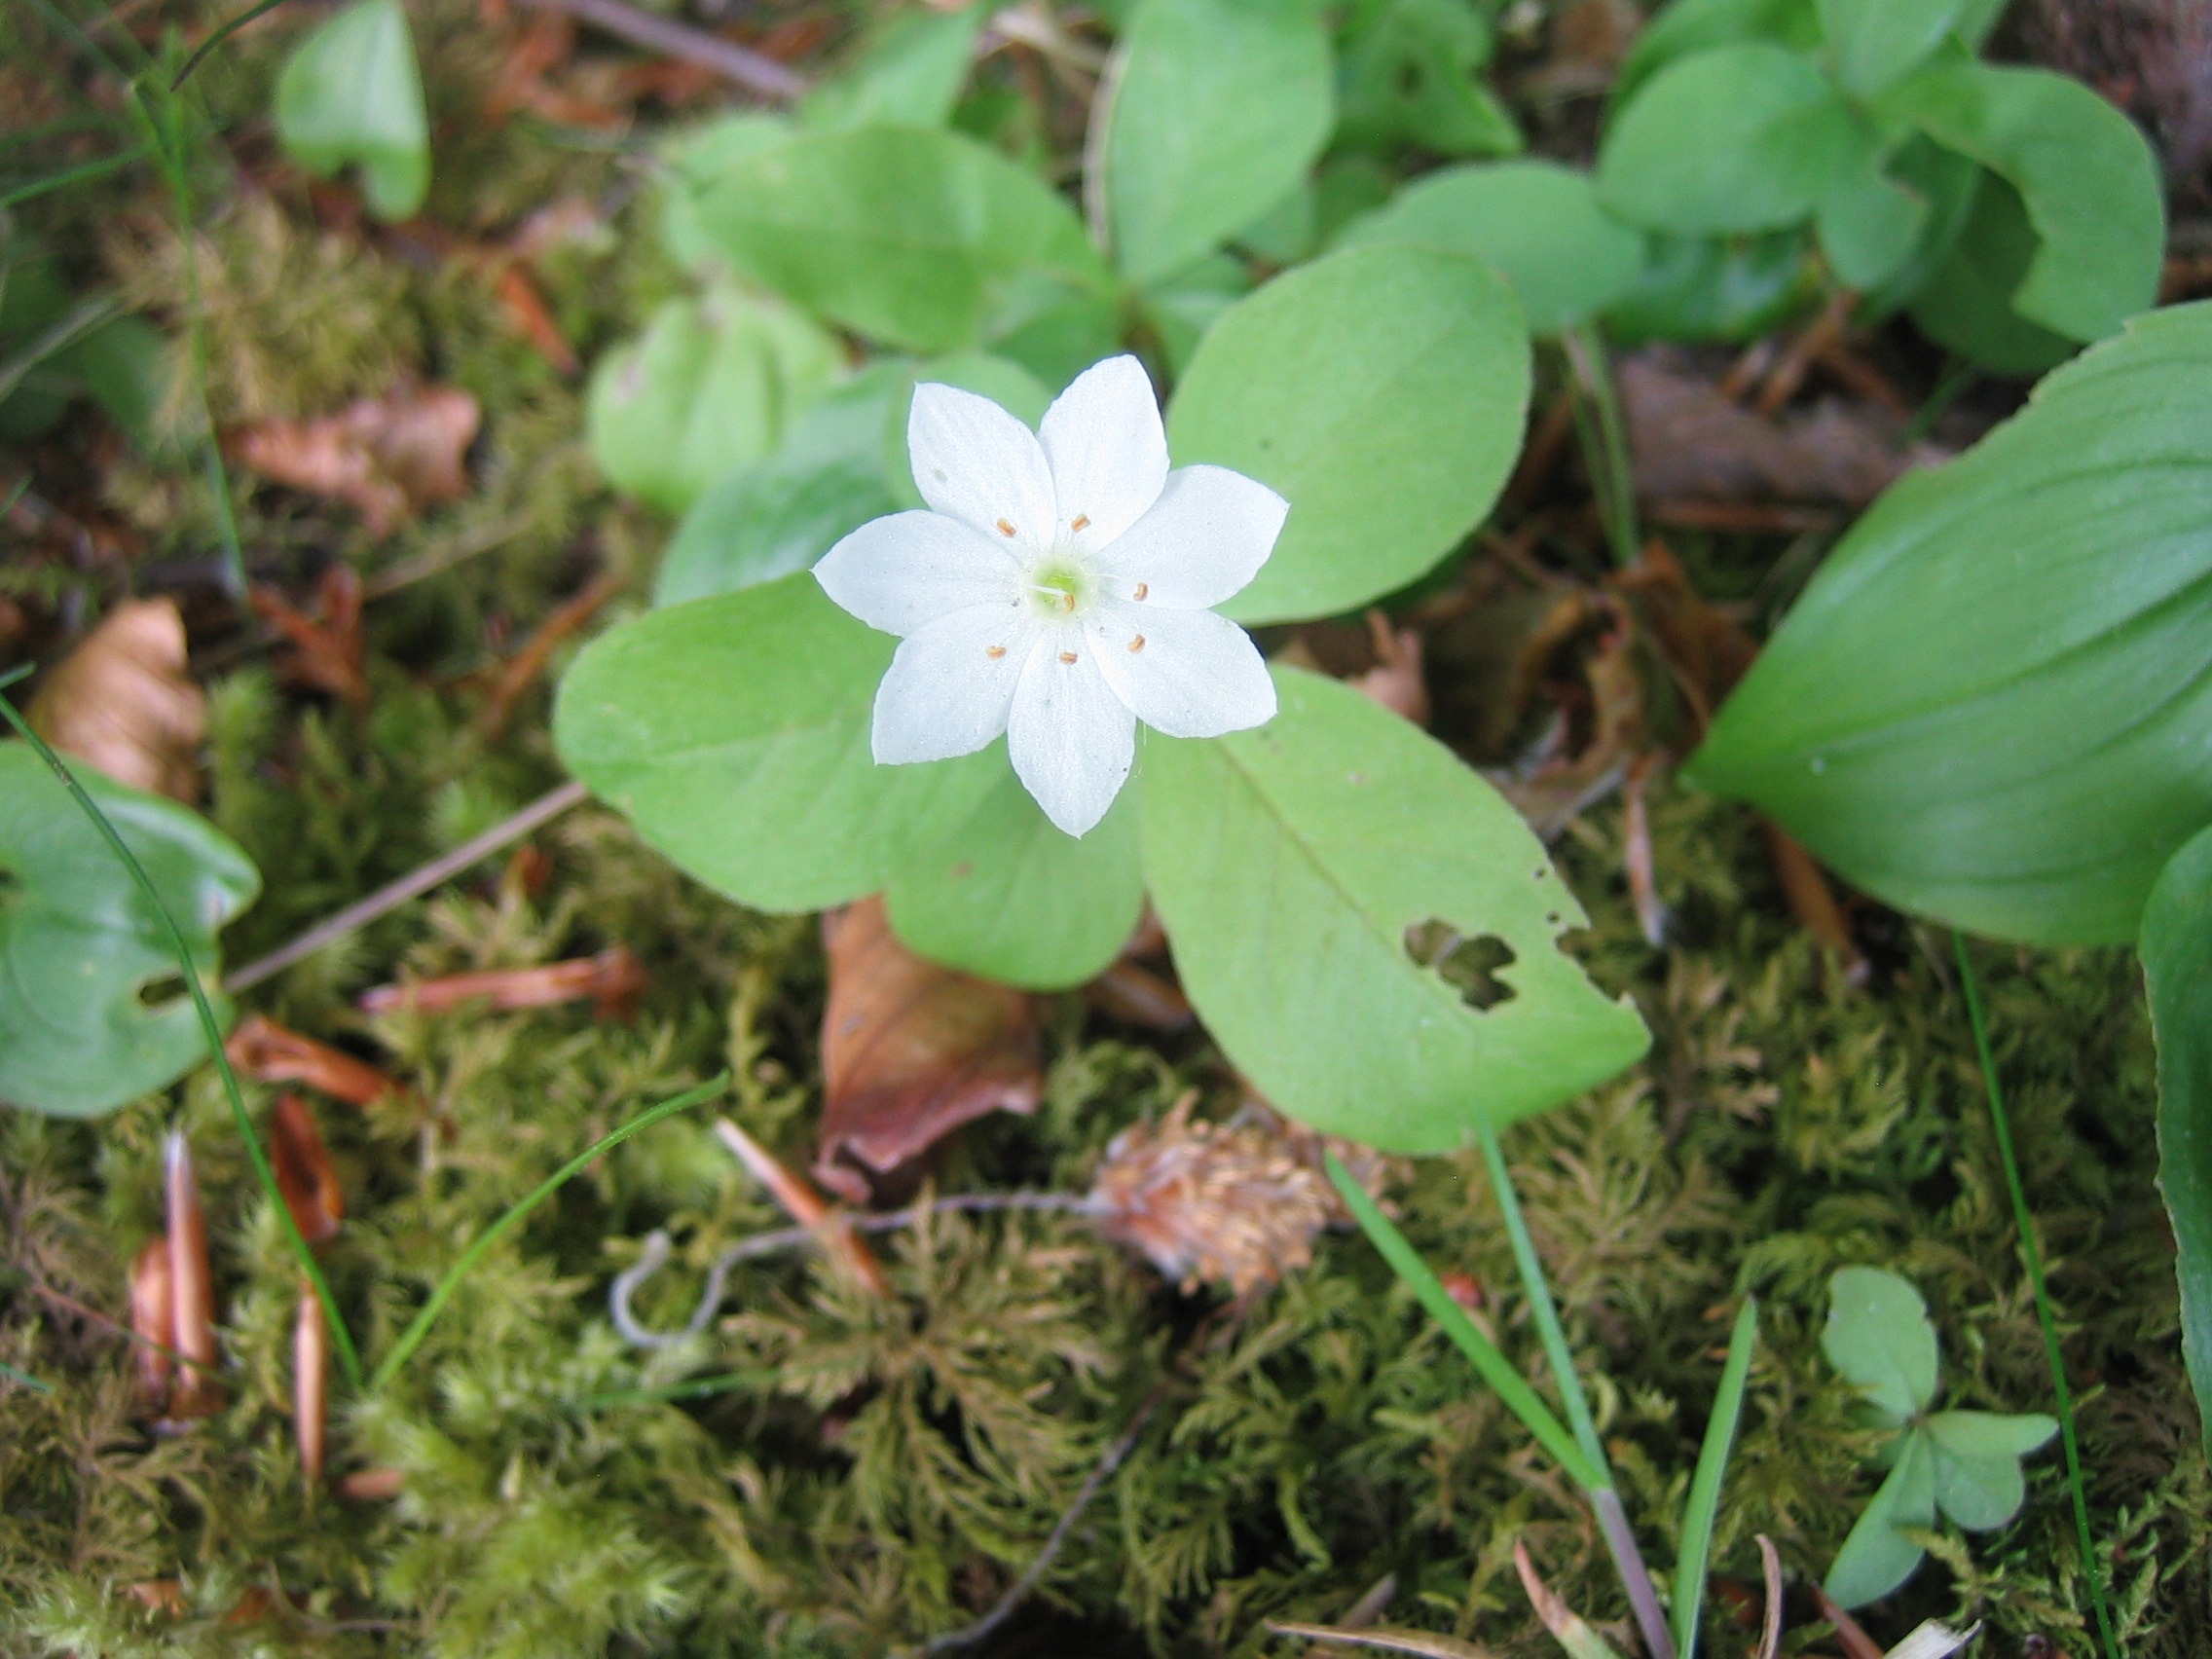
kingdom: Plantae
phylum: Tracheophyta
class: Magnoliopsida
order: Ericales
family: Primulaceae
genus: Lysimachia
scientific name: Lysimachia europaea
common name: Skovstjerne
